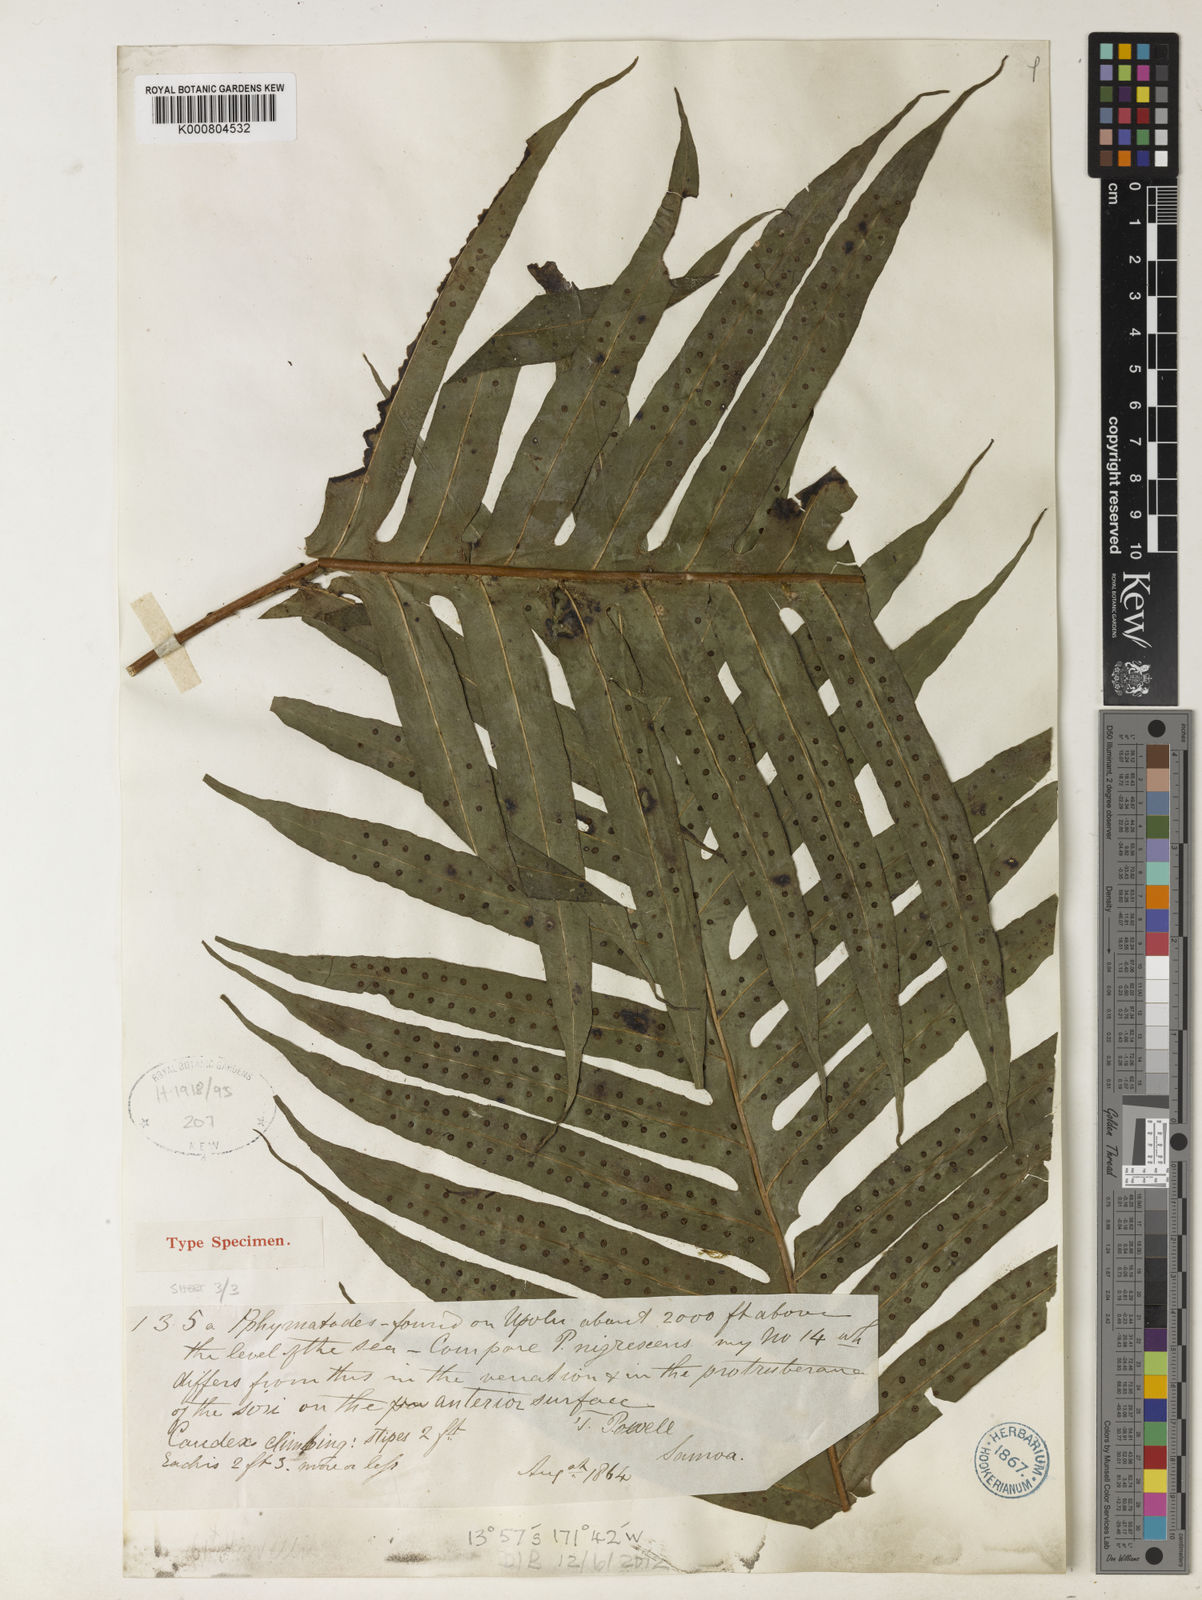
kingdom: Plantae
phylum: Tracheophyta
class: Polypodiopsida
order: Polypodiales
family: Polypodiaceae
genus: Microsorum
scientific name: Microsorum powellii
